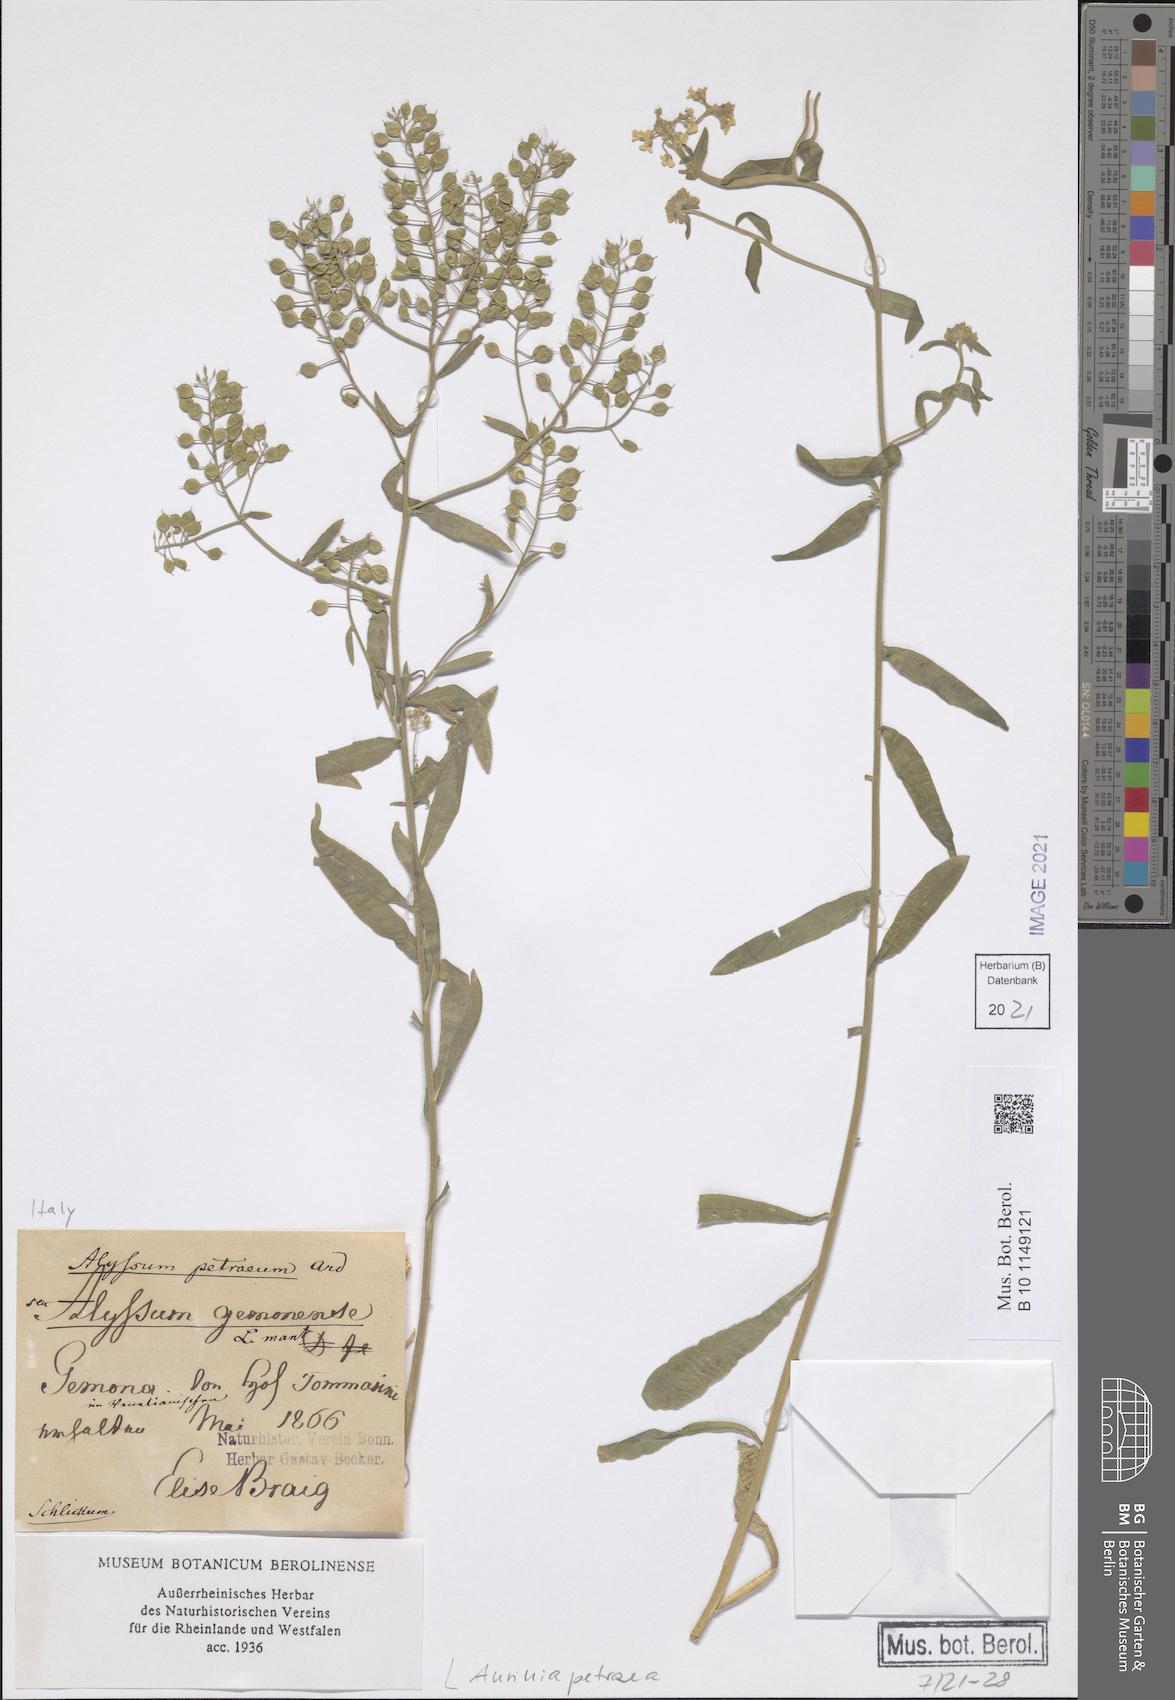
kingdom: Plantae
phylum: Tracheophyta
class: Magnoliopsida
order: Brassicales
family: Brassicaceae
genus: Aurinia
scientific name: Aurinia petraea
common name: Goldentuft
